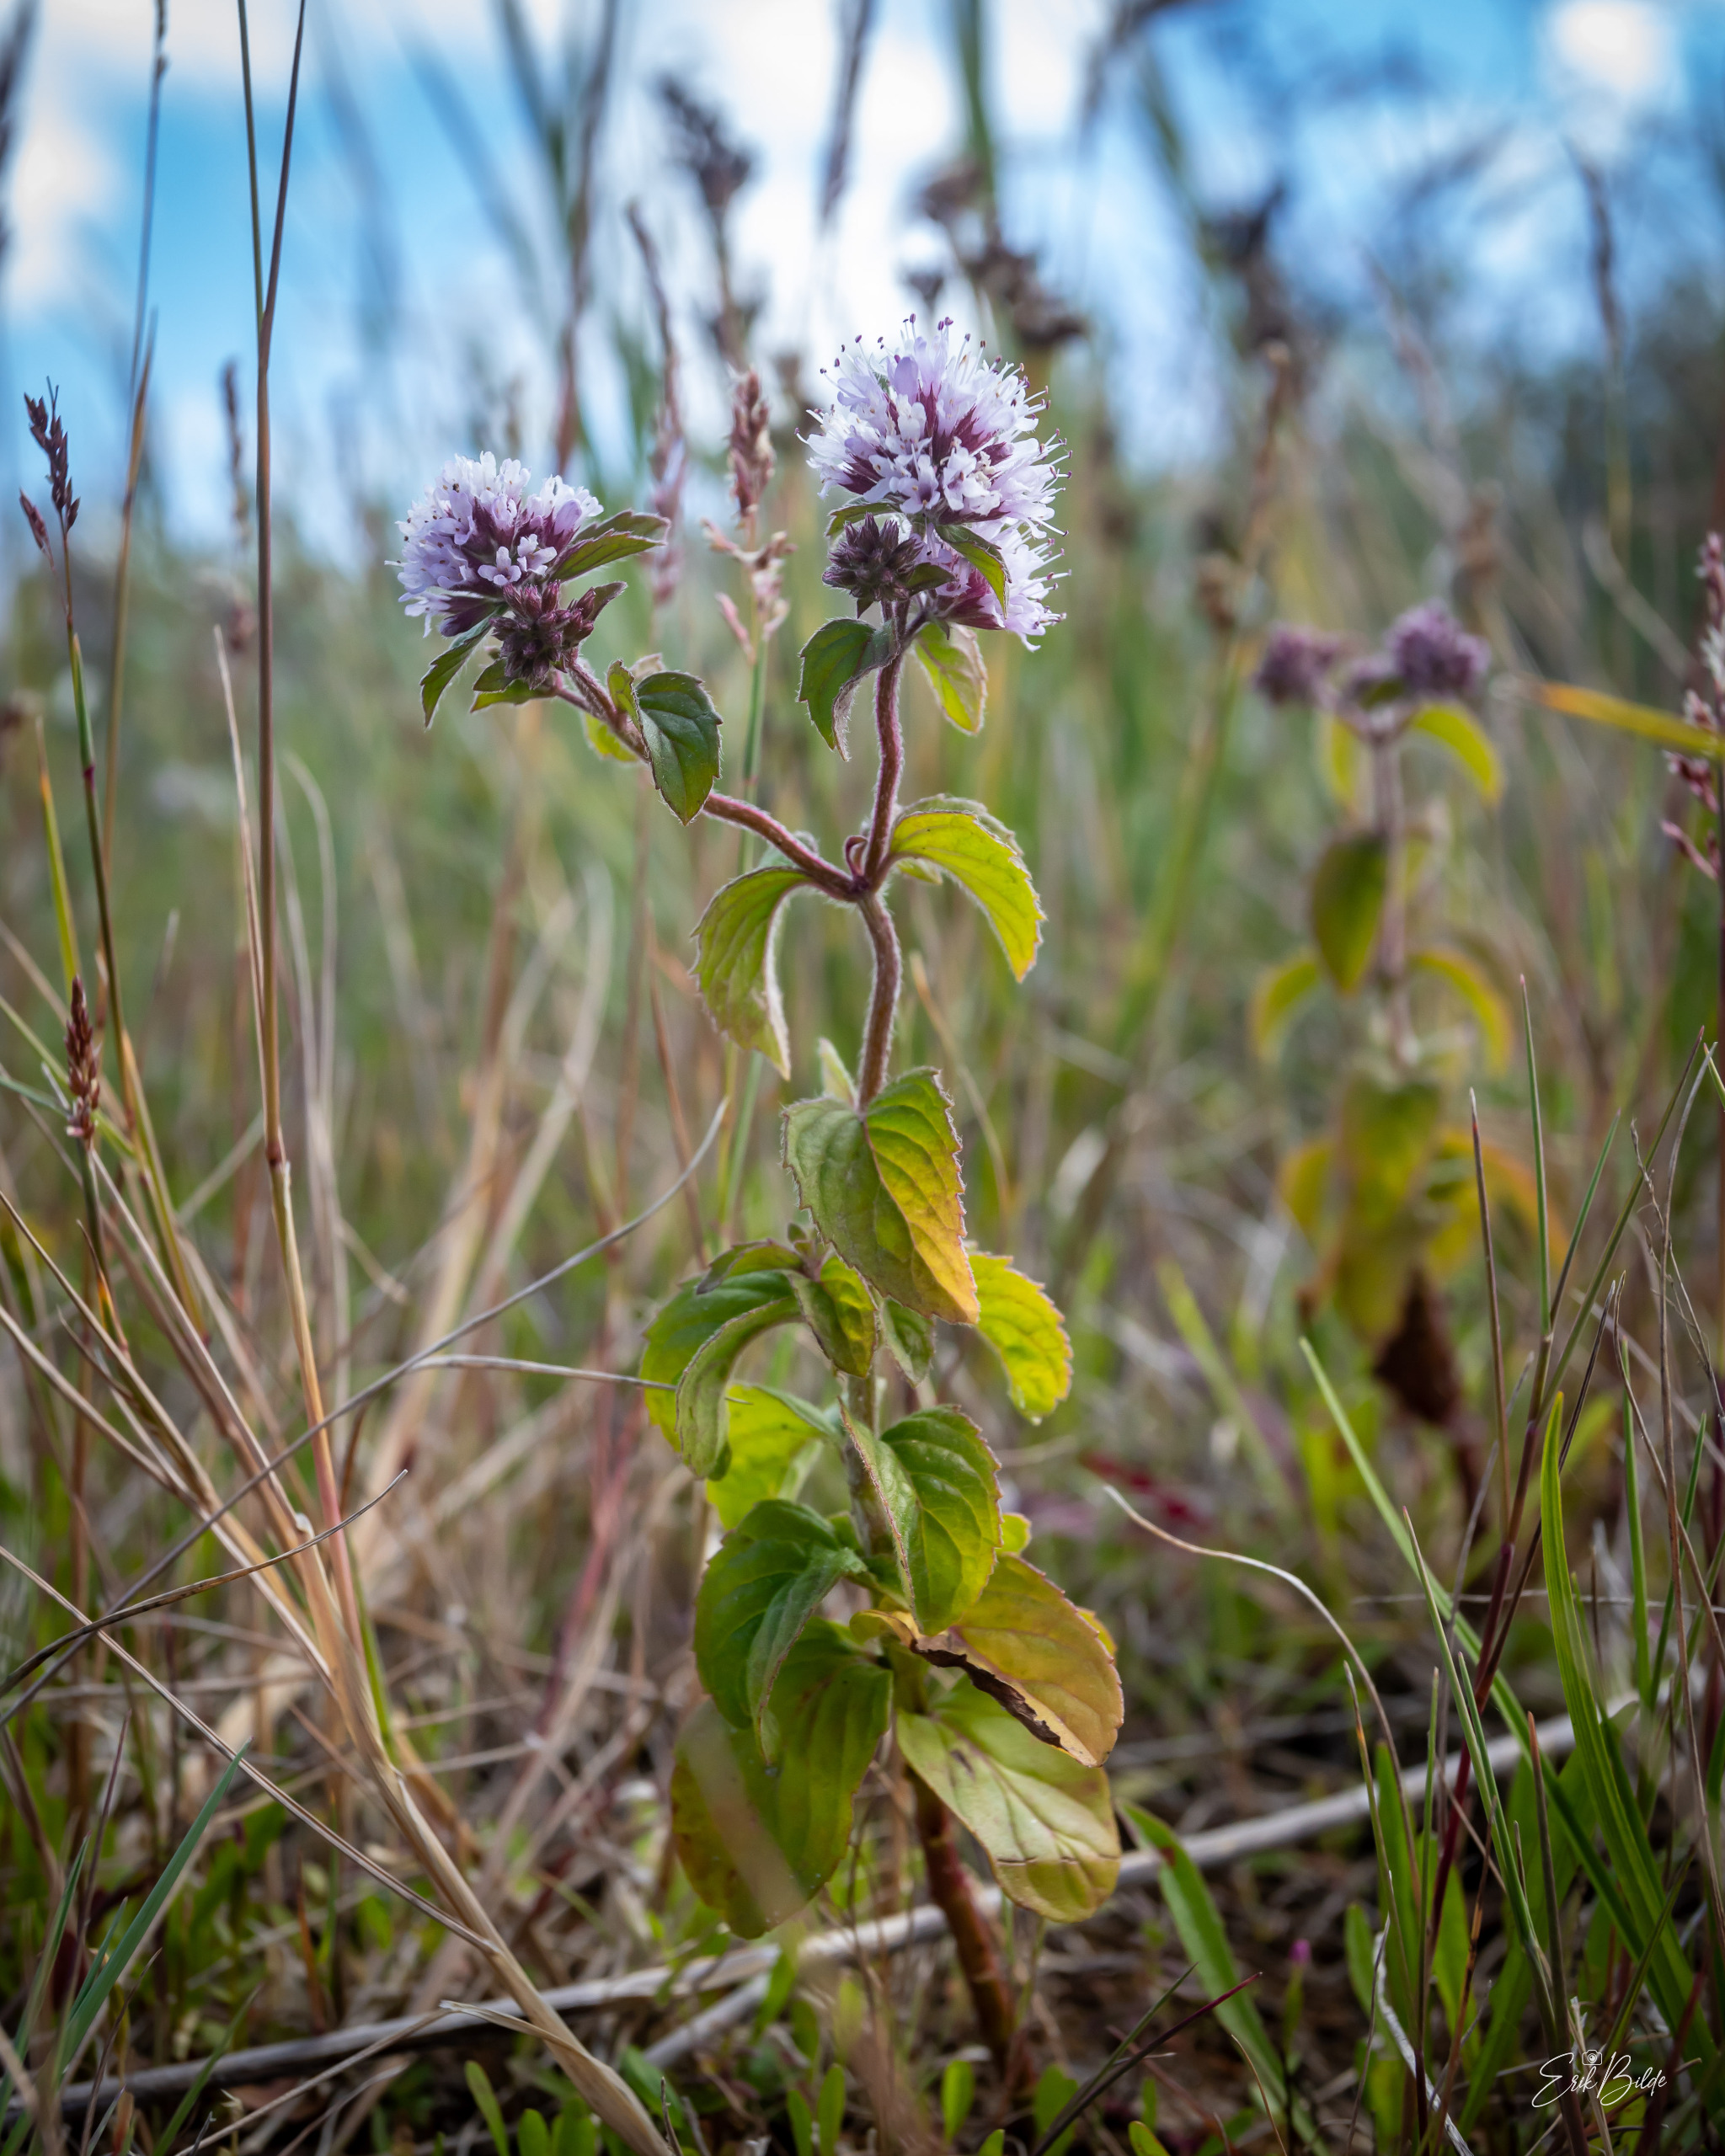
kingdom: Plantae
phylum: Tracheophyta
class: Magnoliopsida
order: Lamiales
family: Lamiaceae
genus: Mentha
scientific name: Mentha aquatica
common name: Vand-mynte
